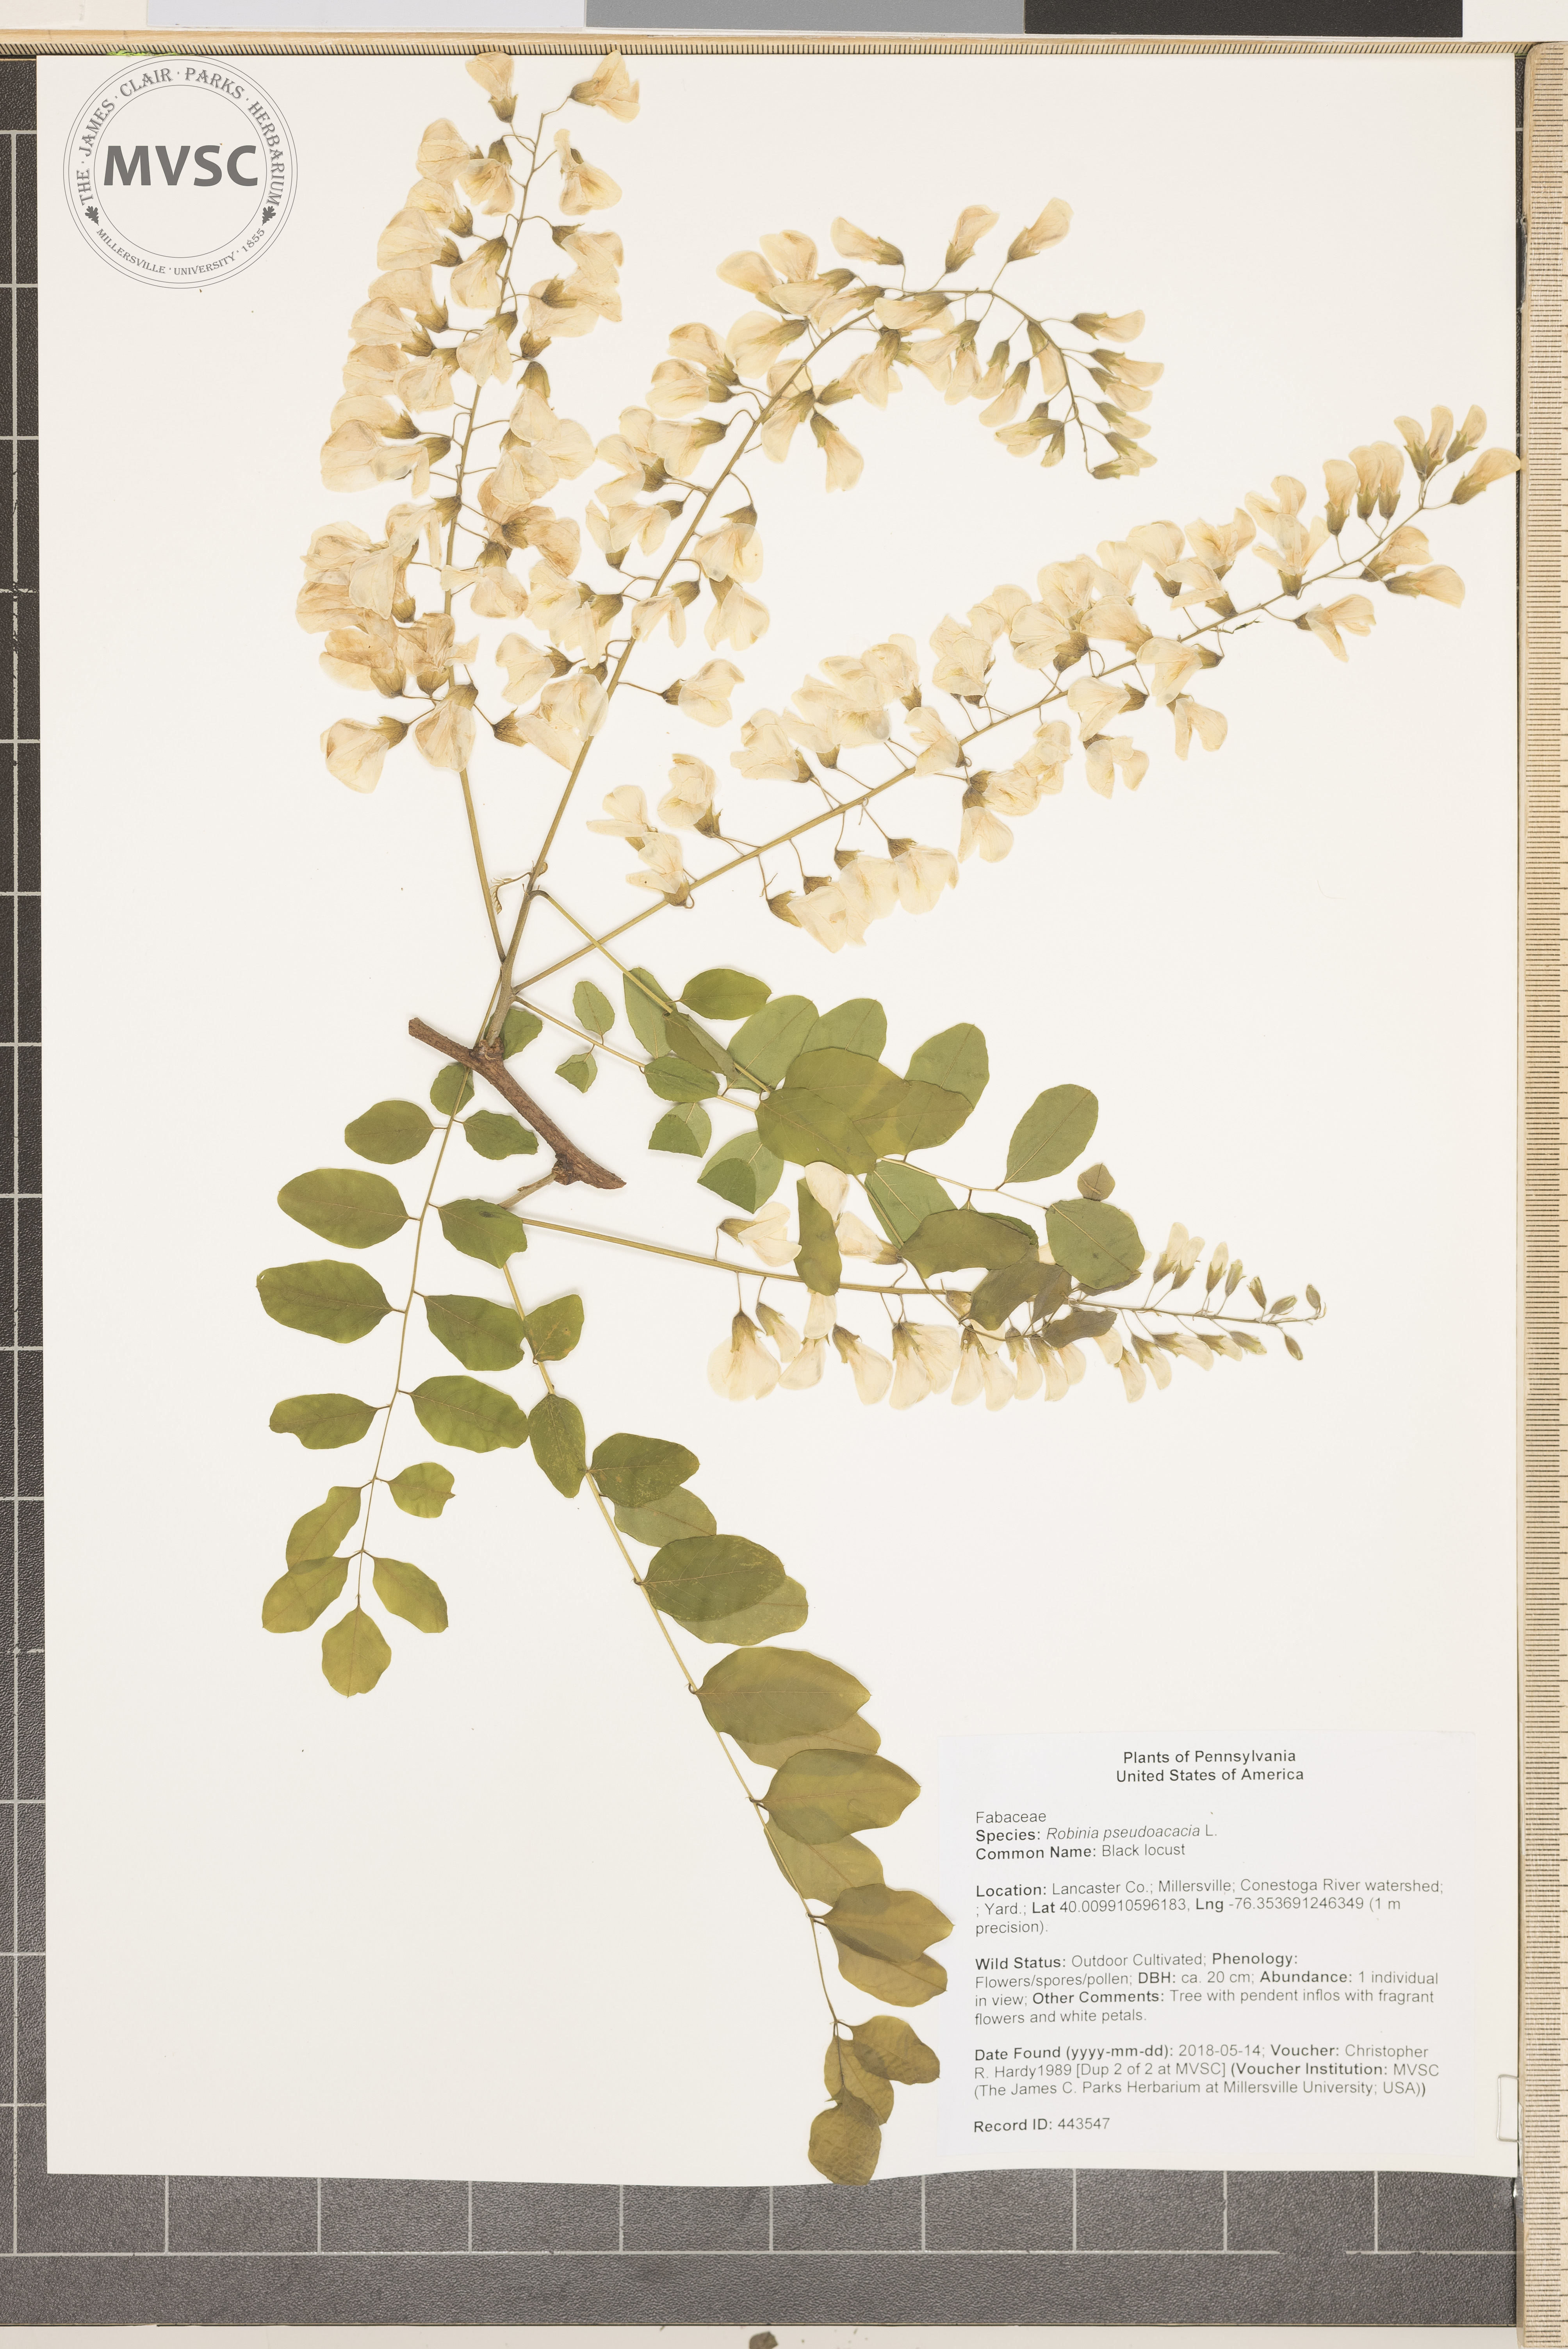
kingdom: Plantae
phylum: Tracheophyta
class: Magnoliopsida
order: Fabales
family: Fabaceae
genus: Robinia
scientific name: Robinia pseudoacacia
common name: Black locust
